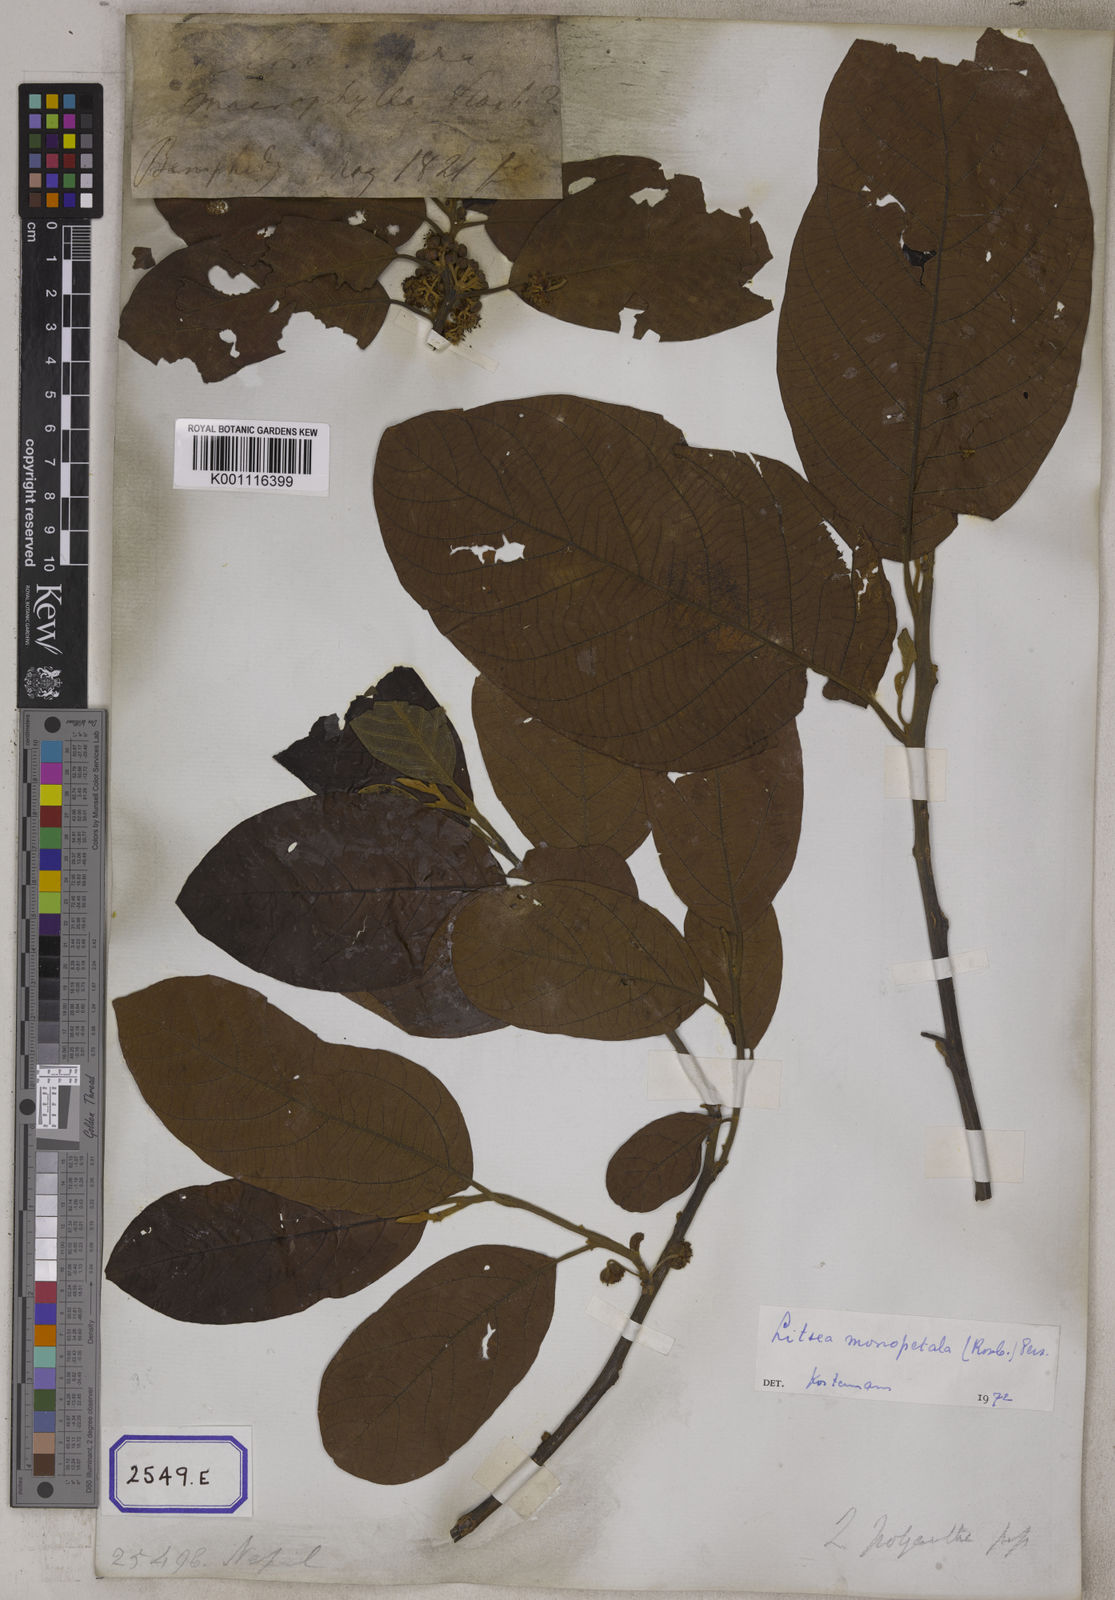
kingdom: Plantae
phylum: Tracheophyta
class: Magnoliopsida
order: Laurales
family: Lauraceae
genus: Litsea
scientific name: Litsea
